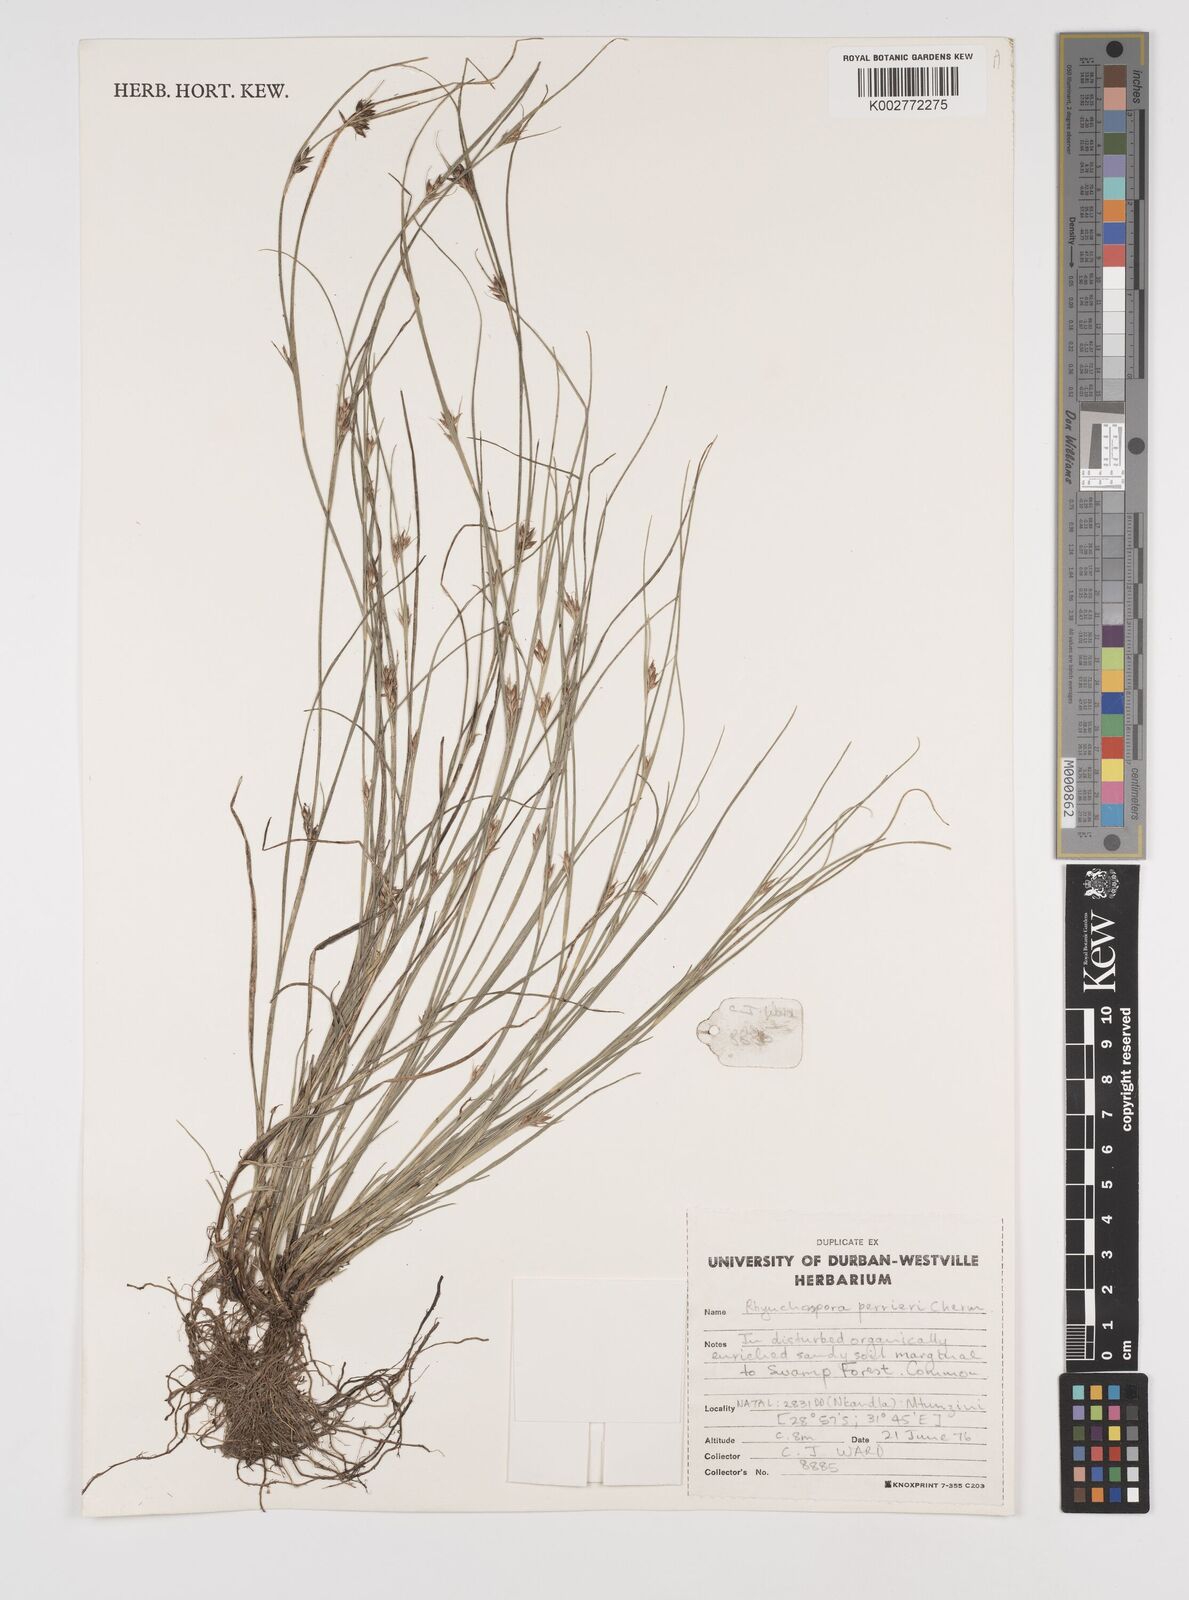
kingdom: Plantae
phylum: Tracheophyta
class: Liliopsida
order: Poales
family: Cyperaceae
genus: Rhynchospora
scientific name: Rhynchospora perrieri
